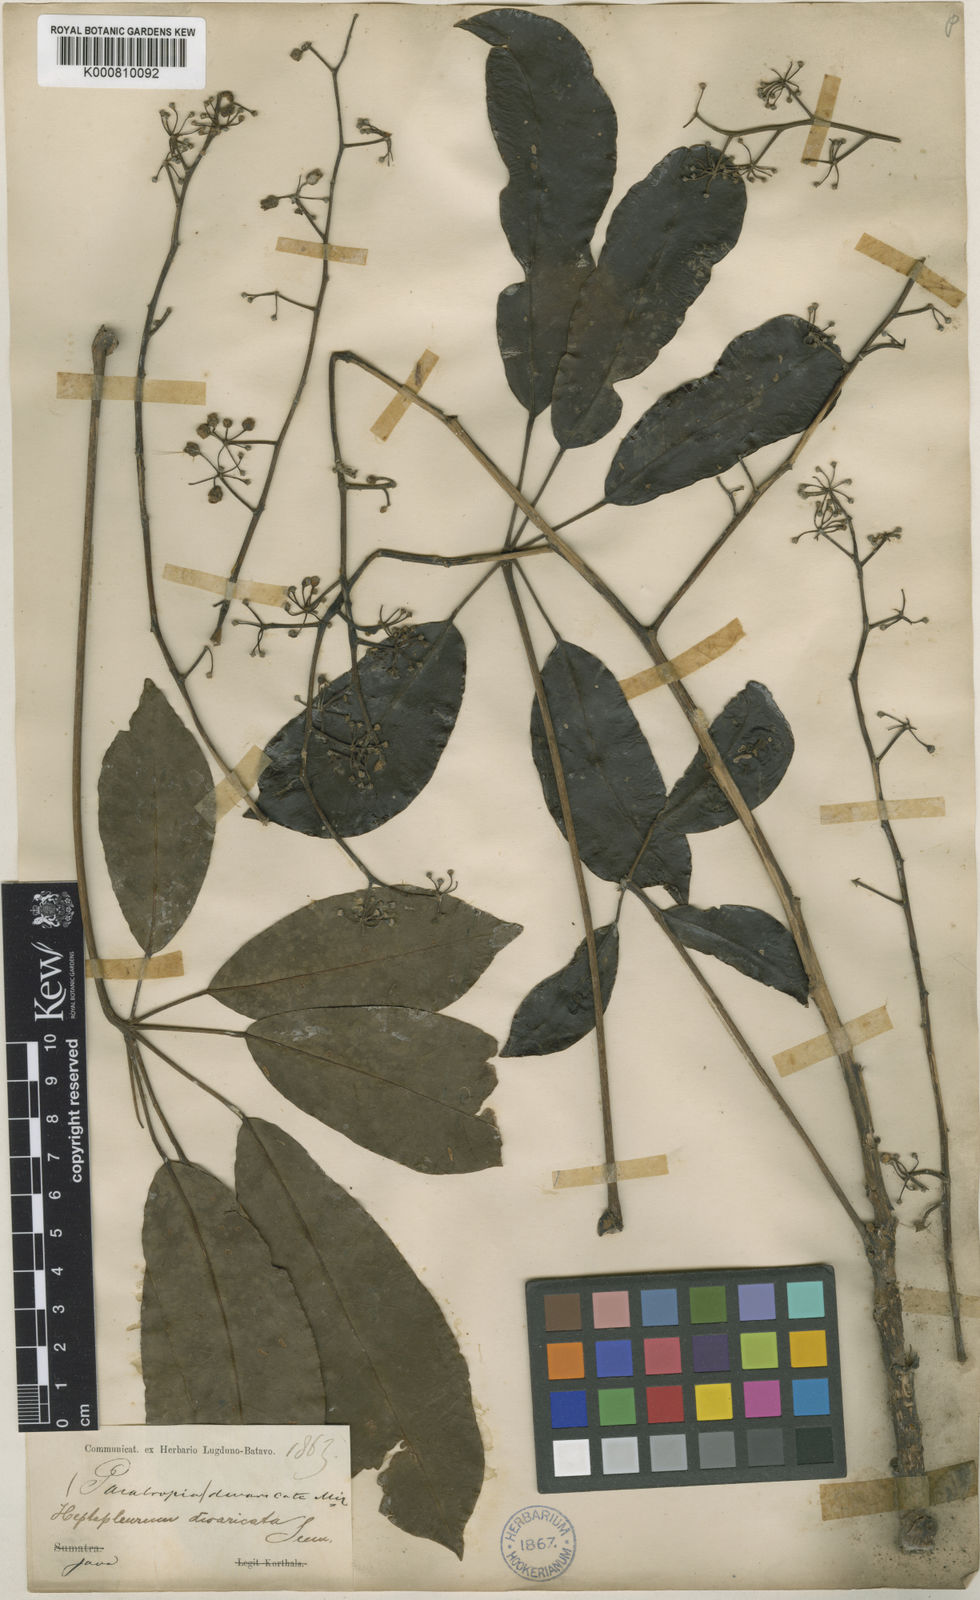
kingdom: Plantae
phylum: Tracheophyta
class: Magnoliopsida
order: Apiales
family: Araliaceae
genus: Heptapleurum
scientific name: Heptapleurum divaricatum
